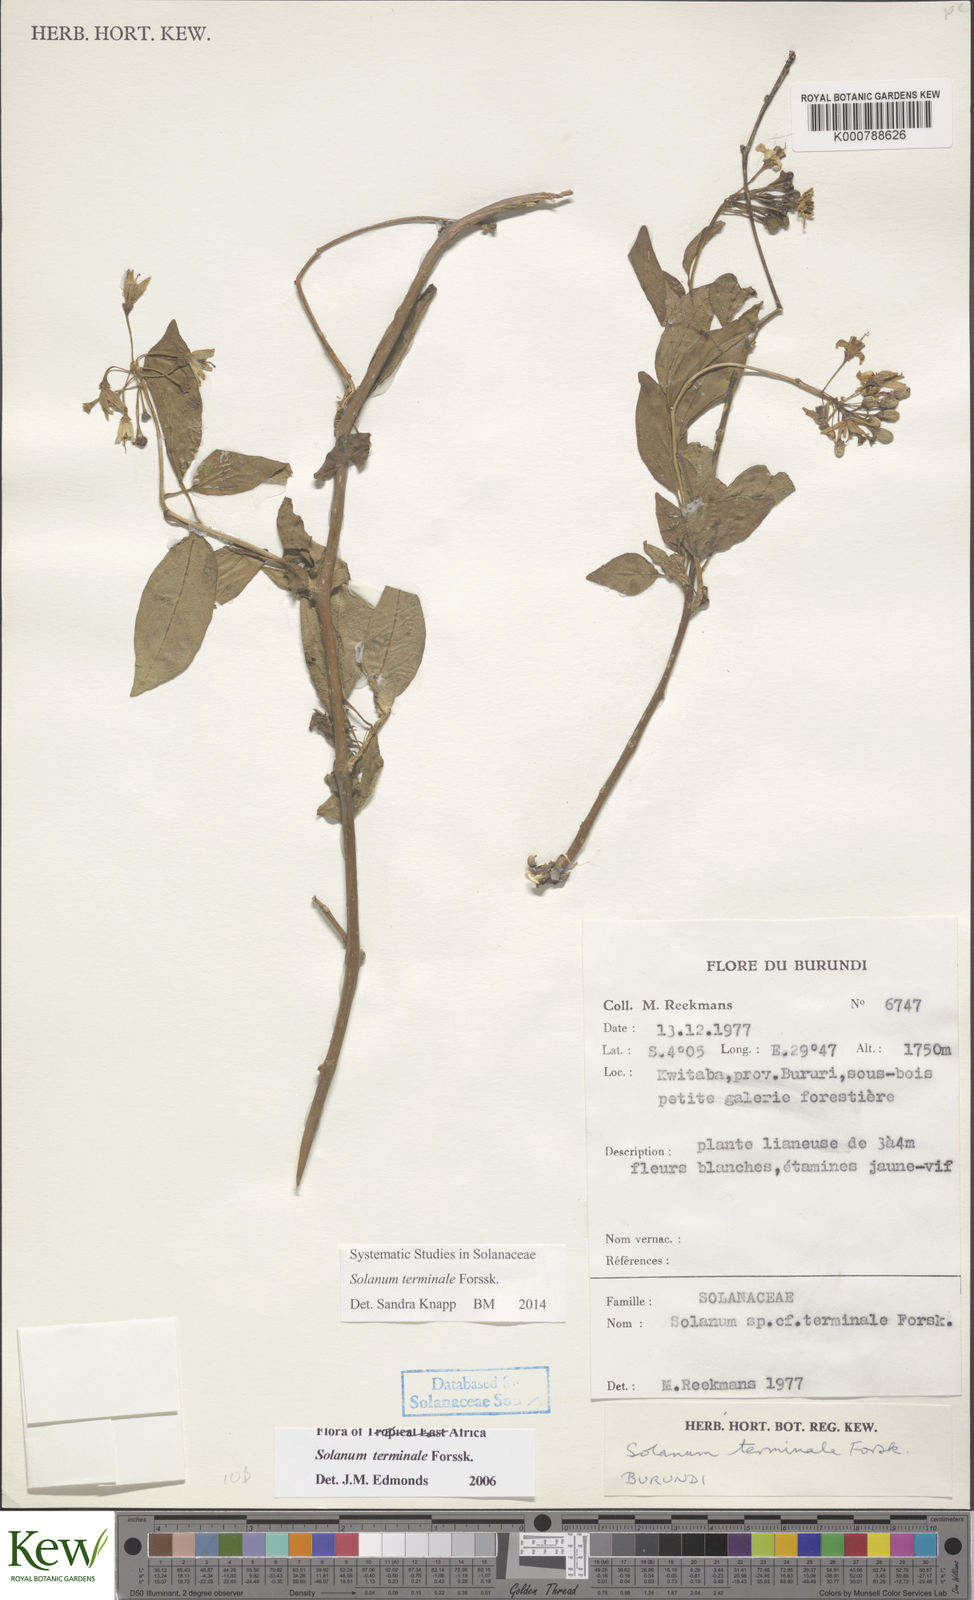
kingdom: Plantae
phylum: Tracheophyta
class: Magnoliopsida
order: Solanales
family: Solanaceae
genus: Solanum
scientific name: Solanum terminale
